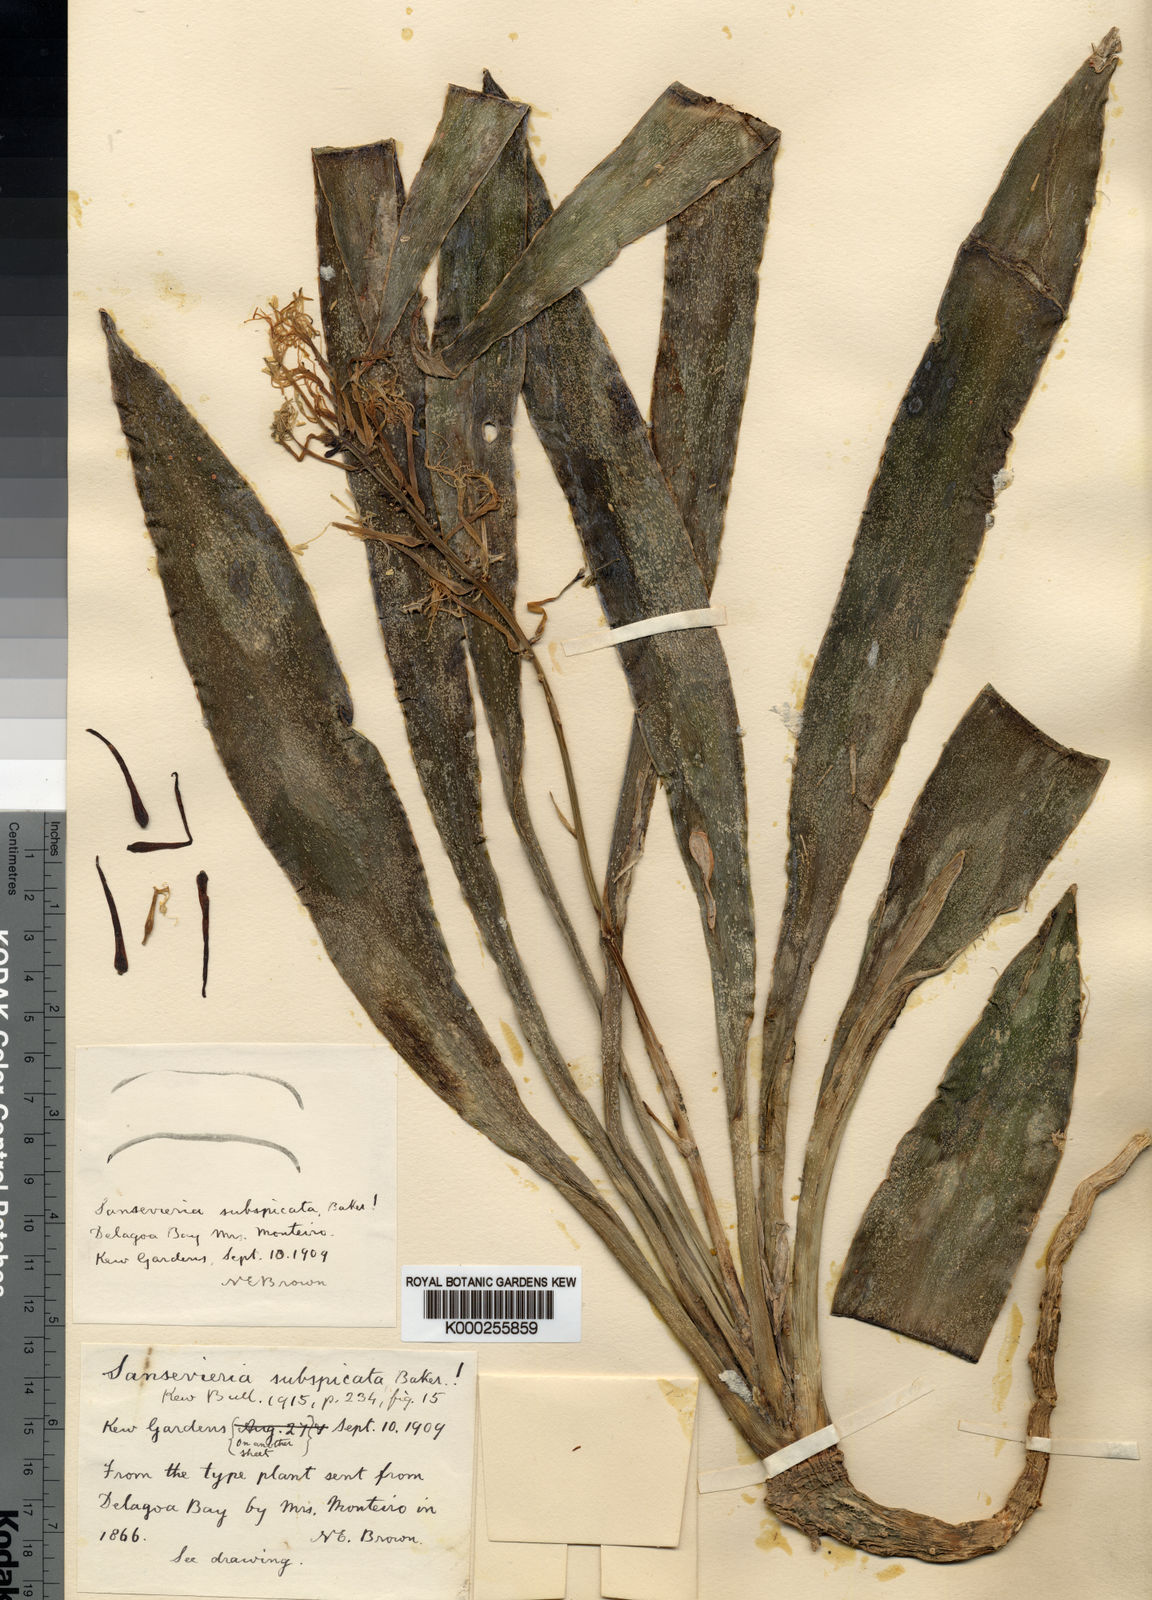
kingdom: Plantae
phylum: Tracheophyta
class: Liliopsida
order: Asparagales
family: Asparagaceae
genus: Dracaena
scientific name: Dracaena subspicata
